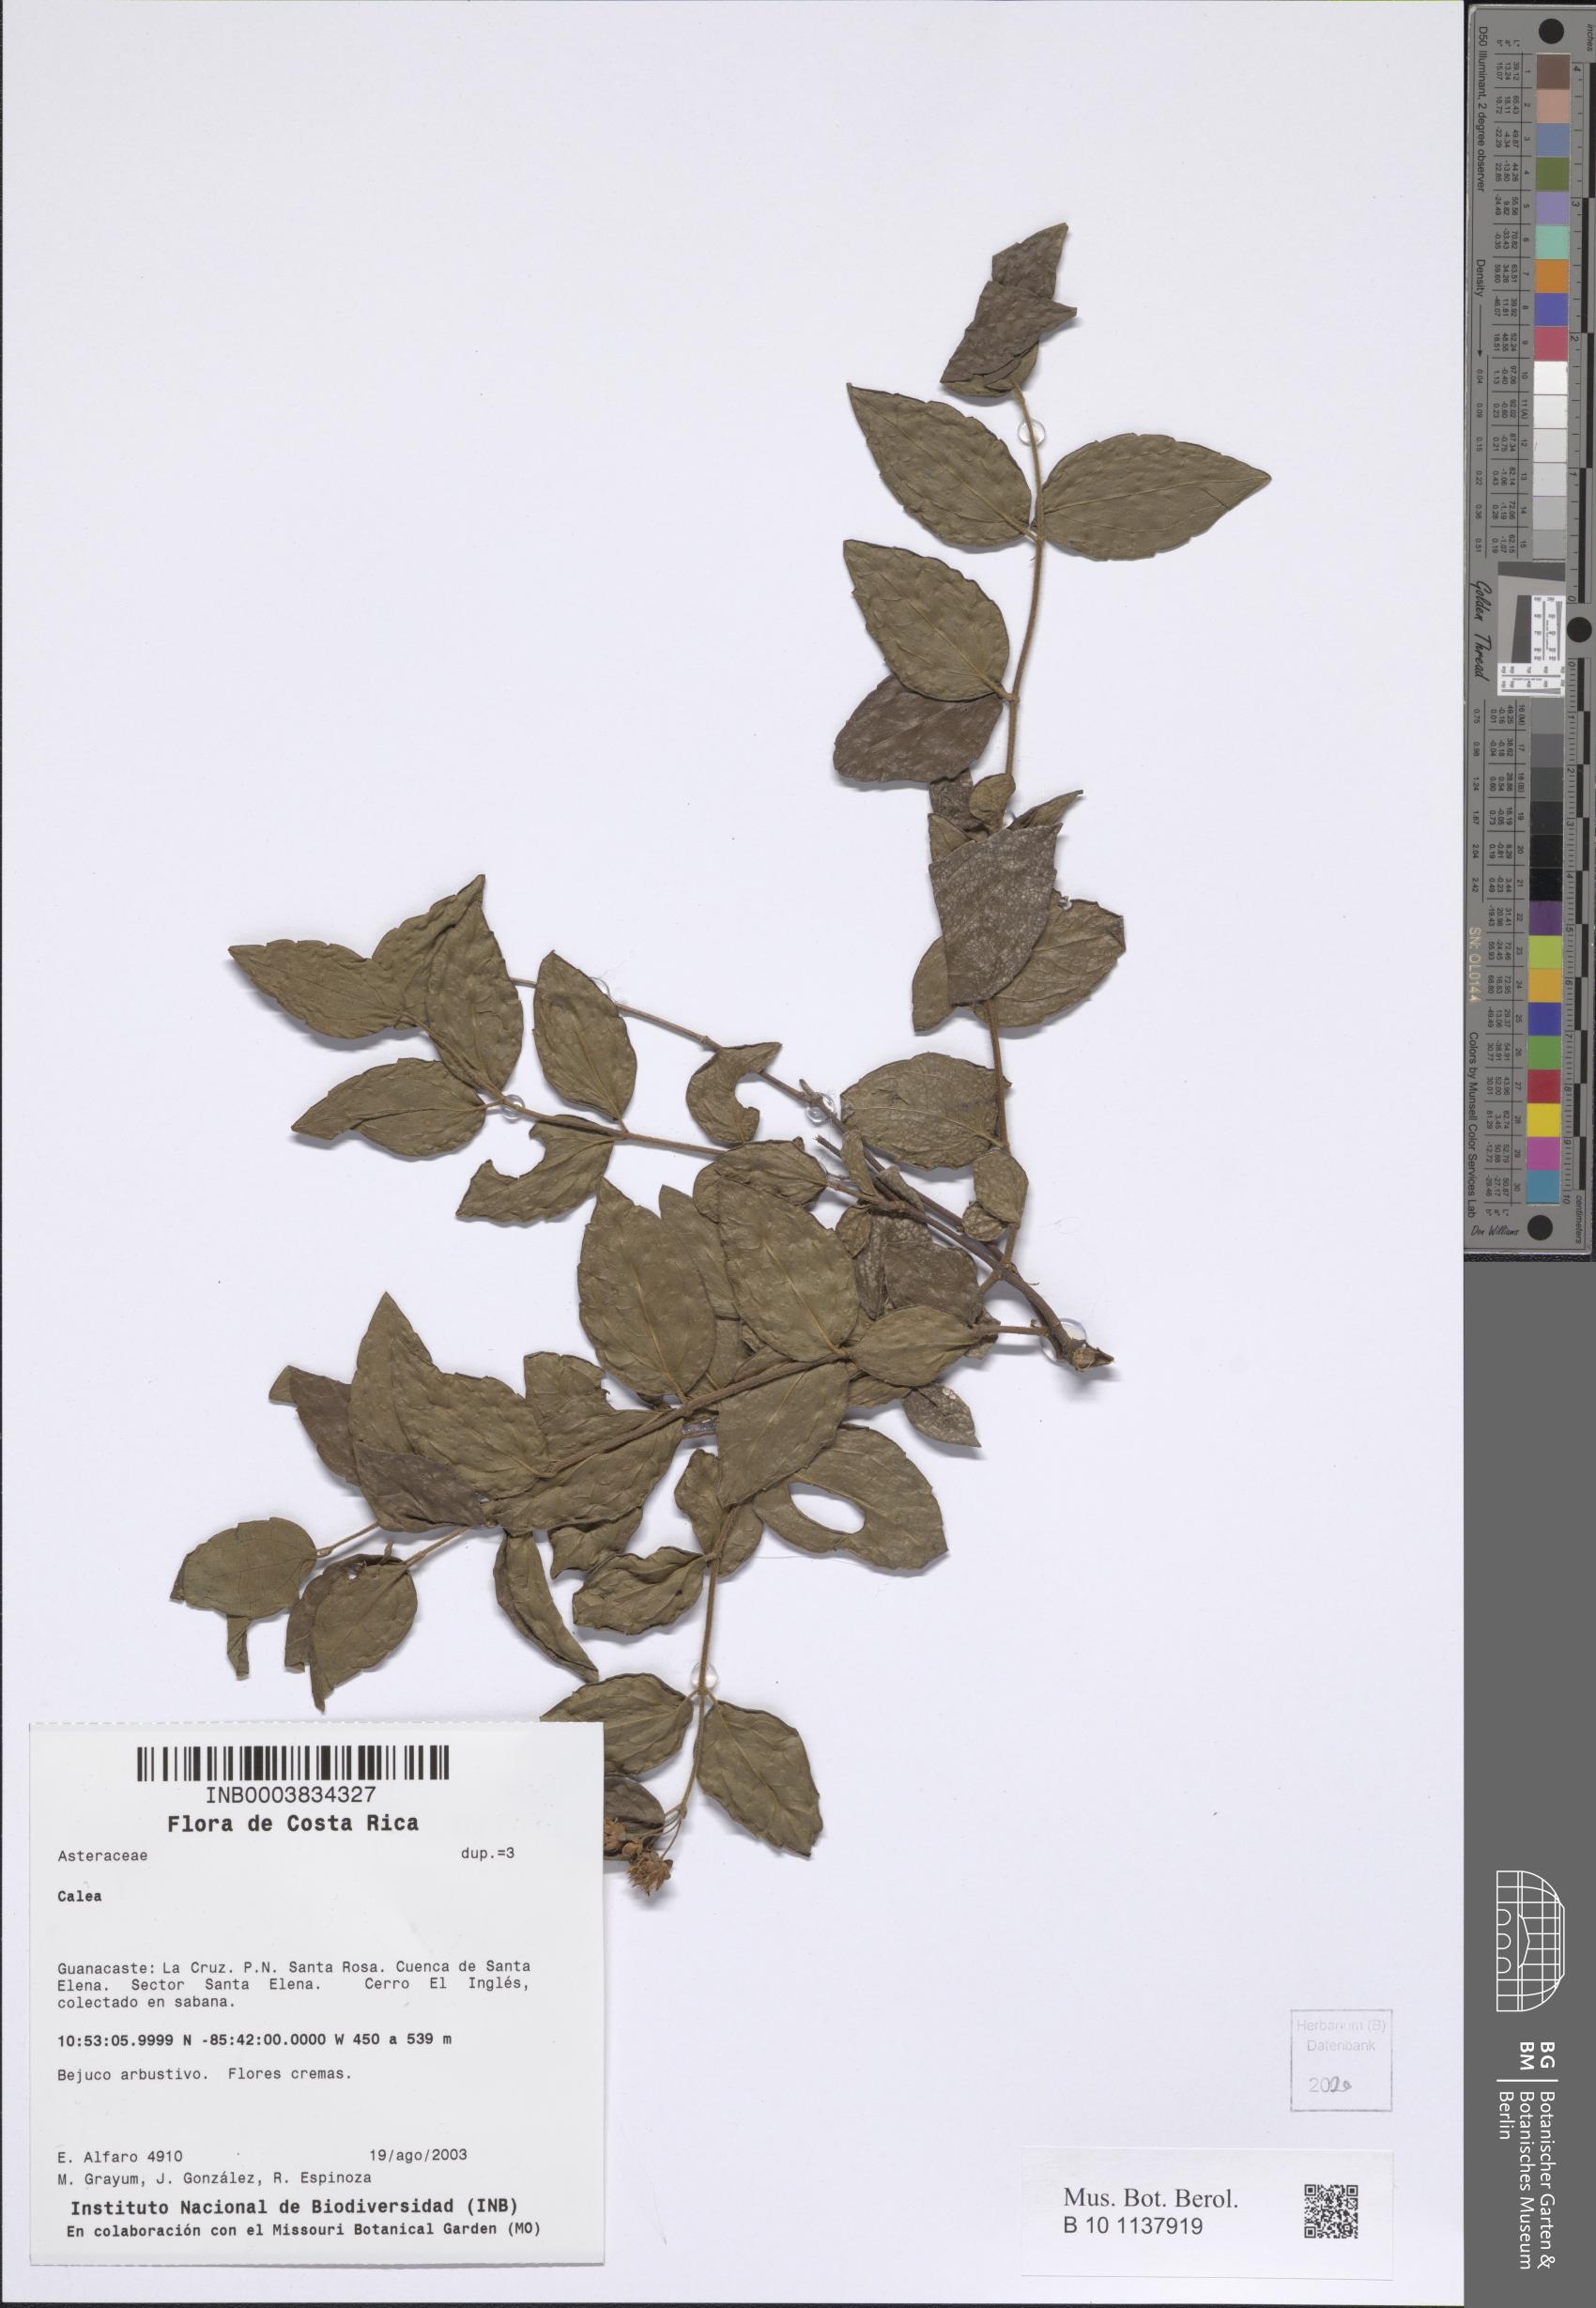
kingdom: Plantae
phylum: Tracheophyta
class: Magnoliopsida
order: Asterales
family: Asteraceae
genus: Calea
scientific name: Calea
